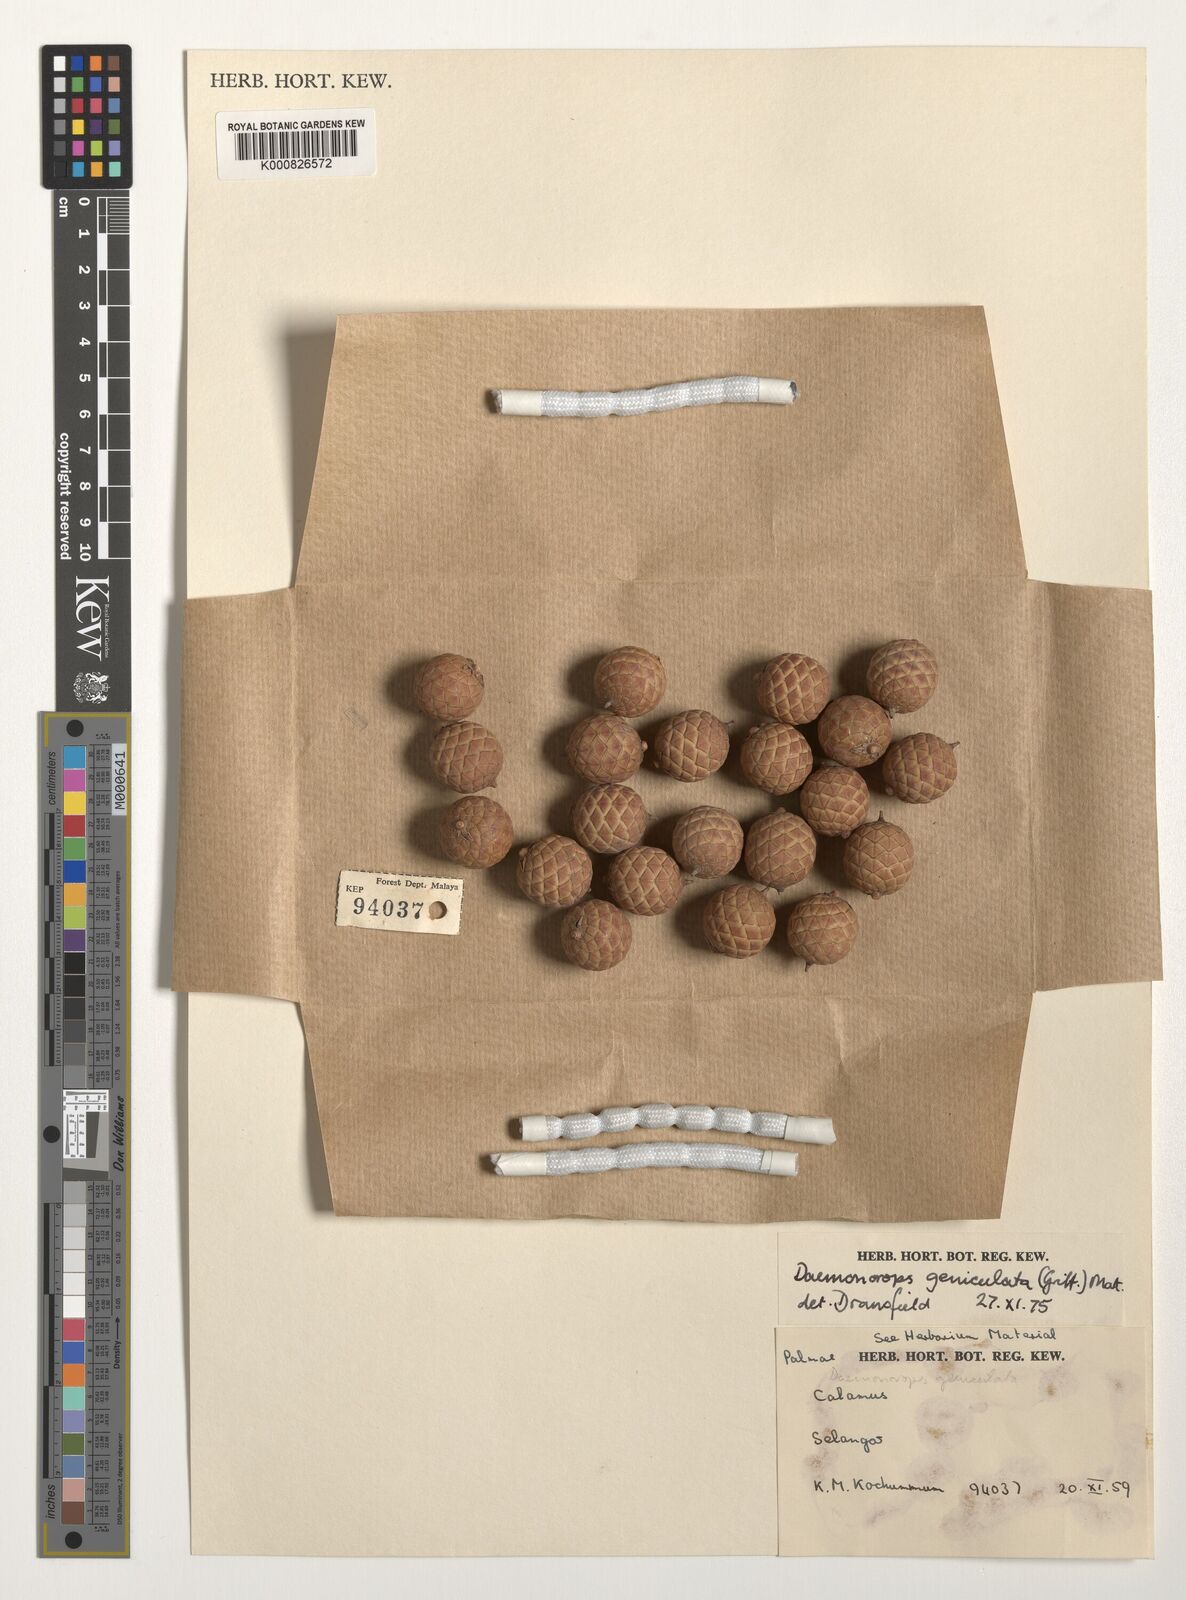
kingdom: Plantae
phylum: Tracheophyta
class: Liliopsida
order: Arecales
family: Arecaceae
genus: Calamus
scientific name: Calamus geniculatus
